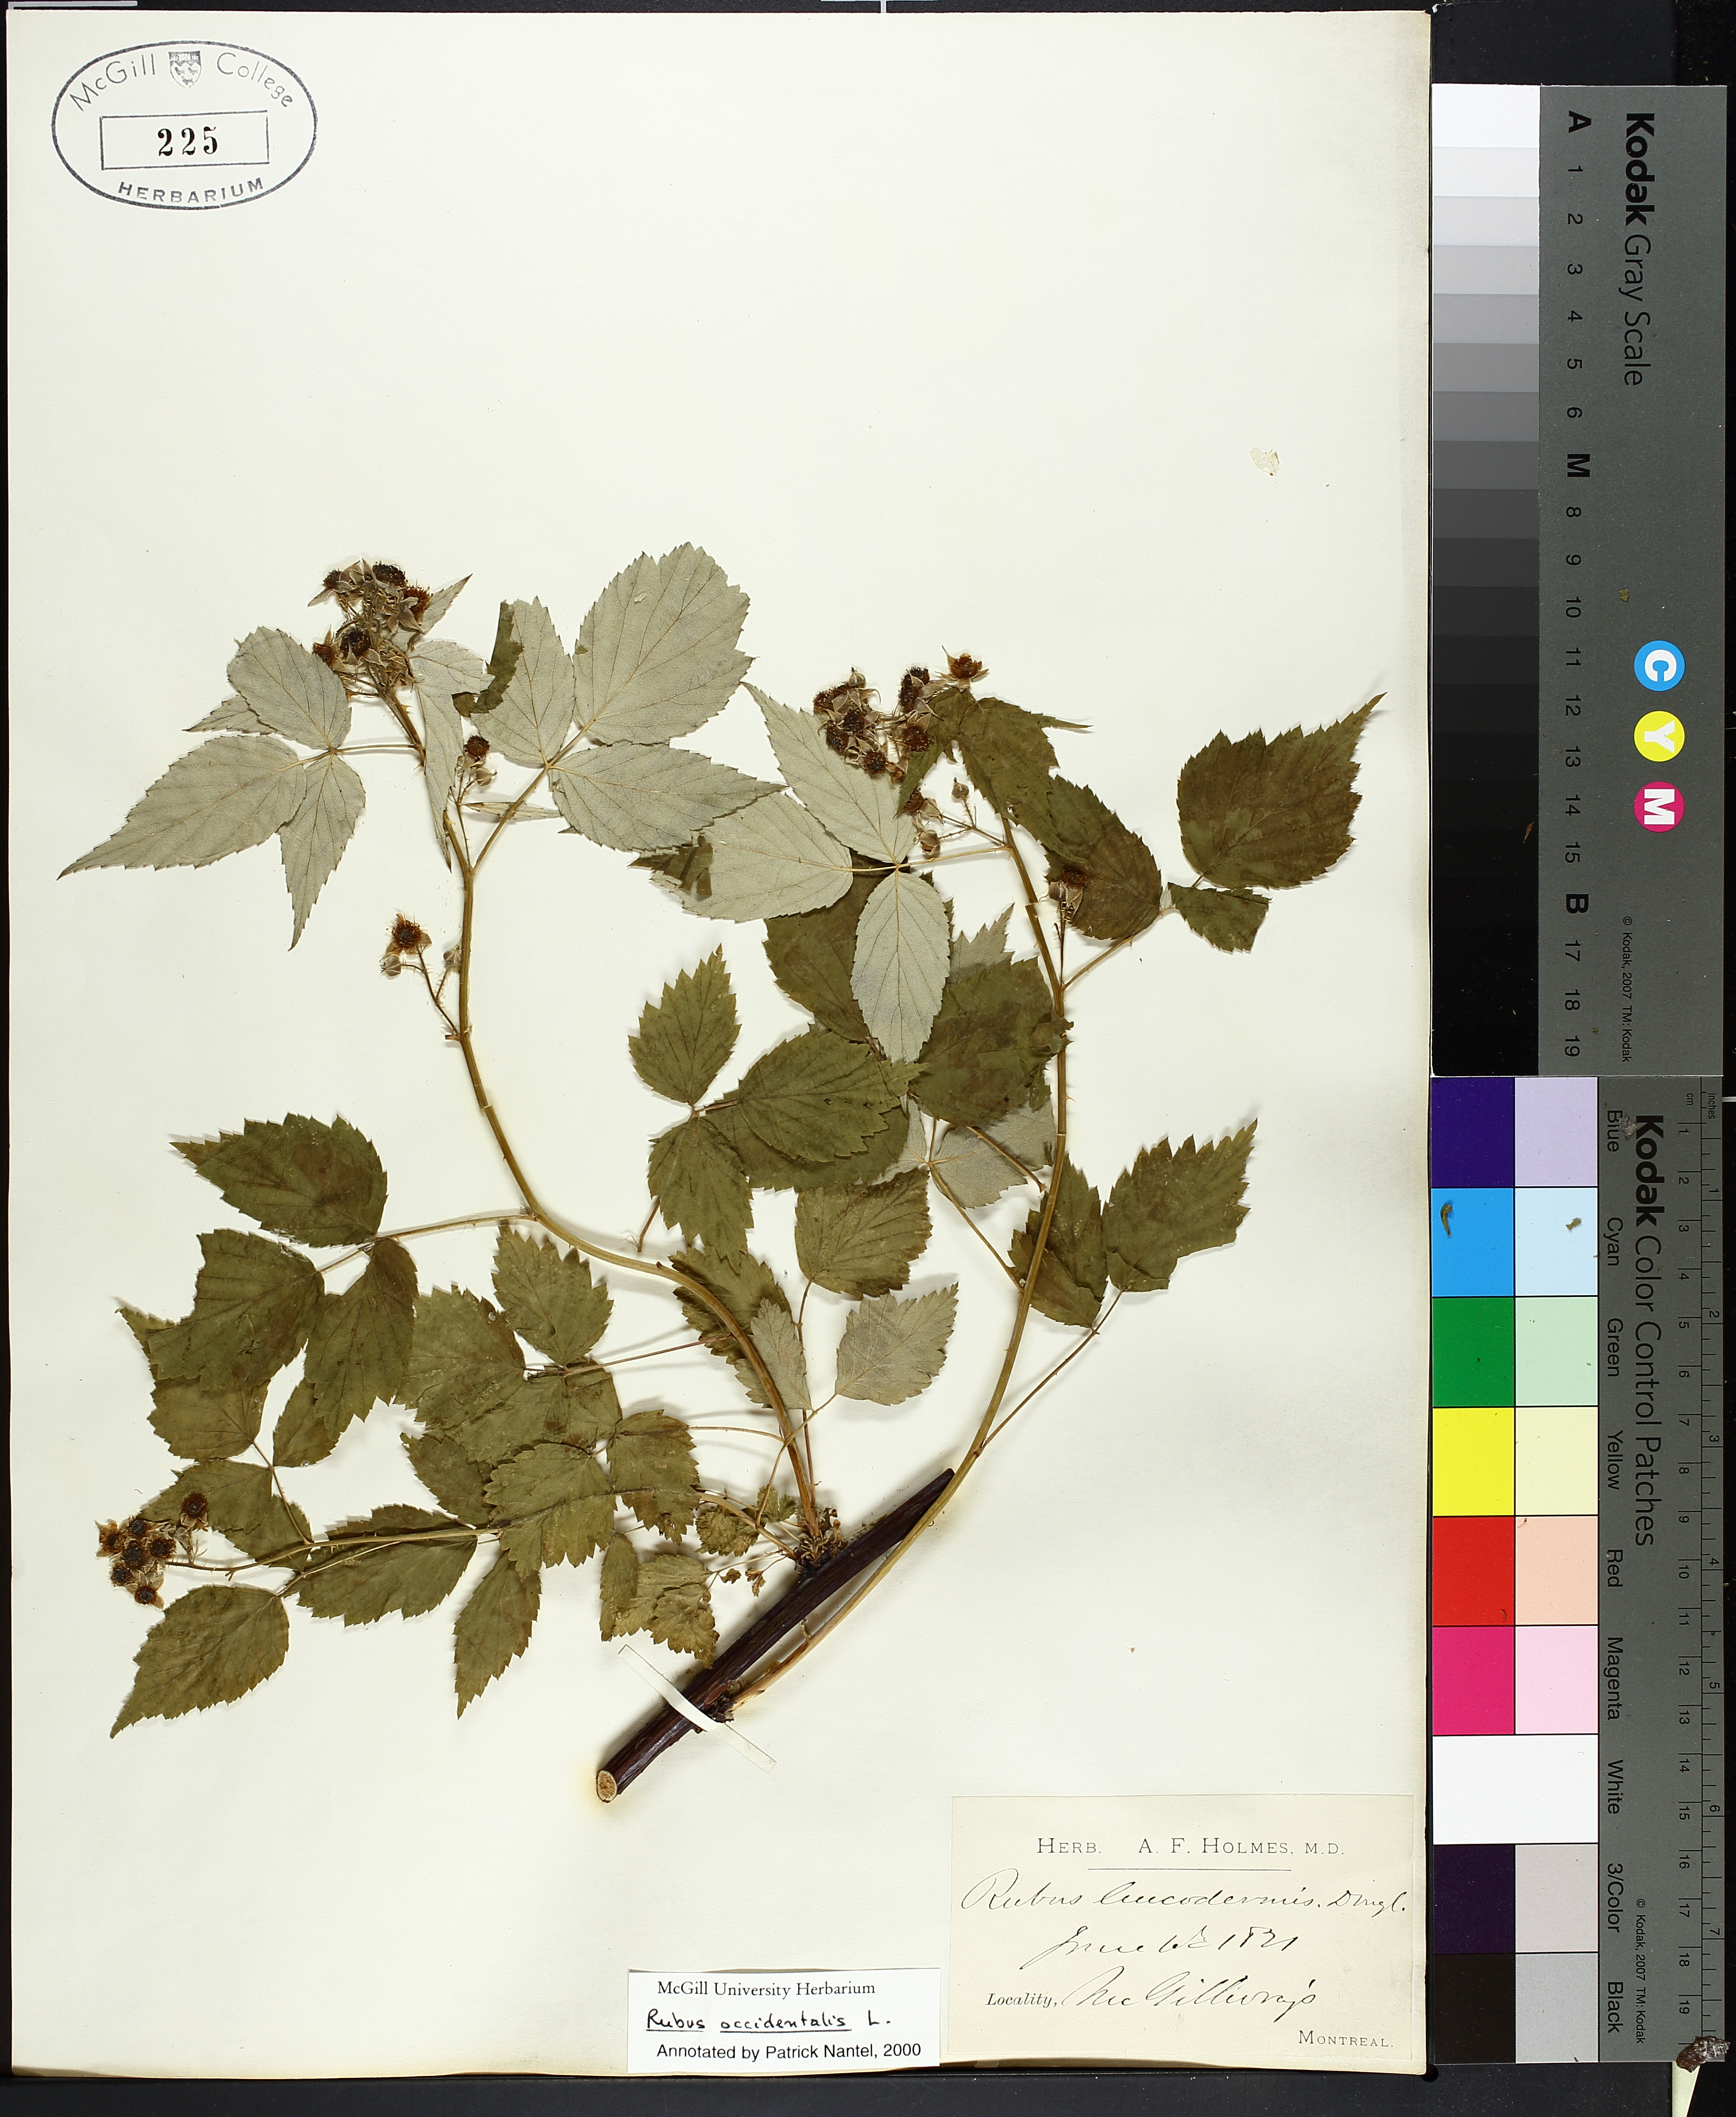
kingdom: Plantae
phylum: Tracheophyta
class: Magnoliopsida
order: Rosales
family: Rosaceae
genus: Rubus
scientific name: Rubus occidentalis
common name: Black raspberry
